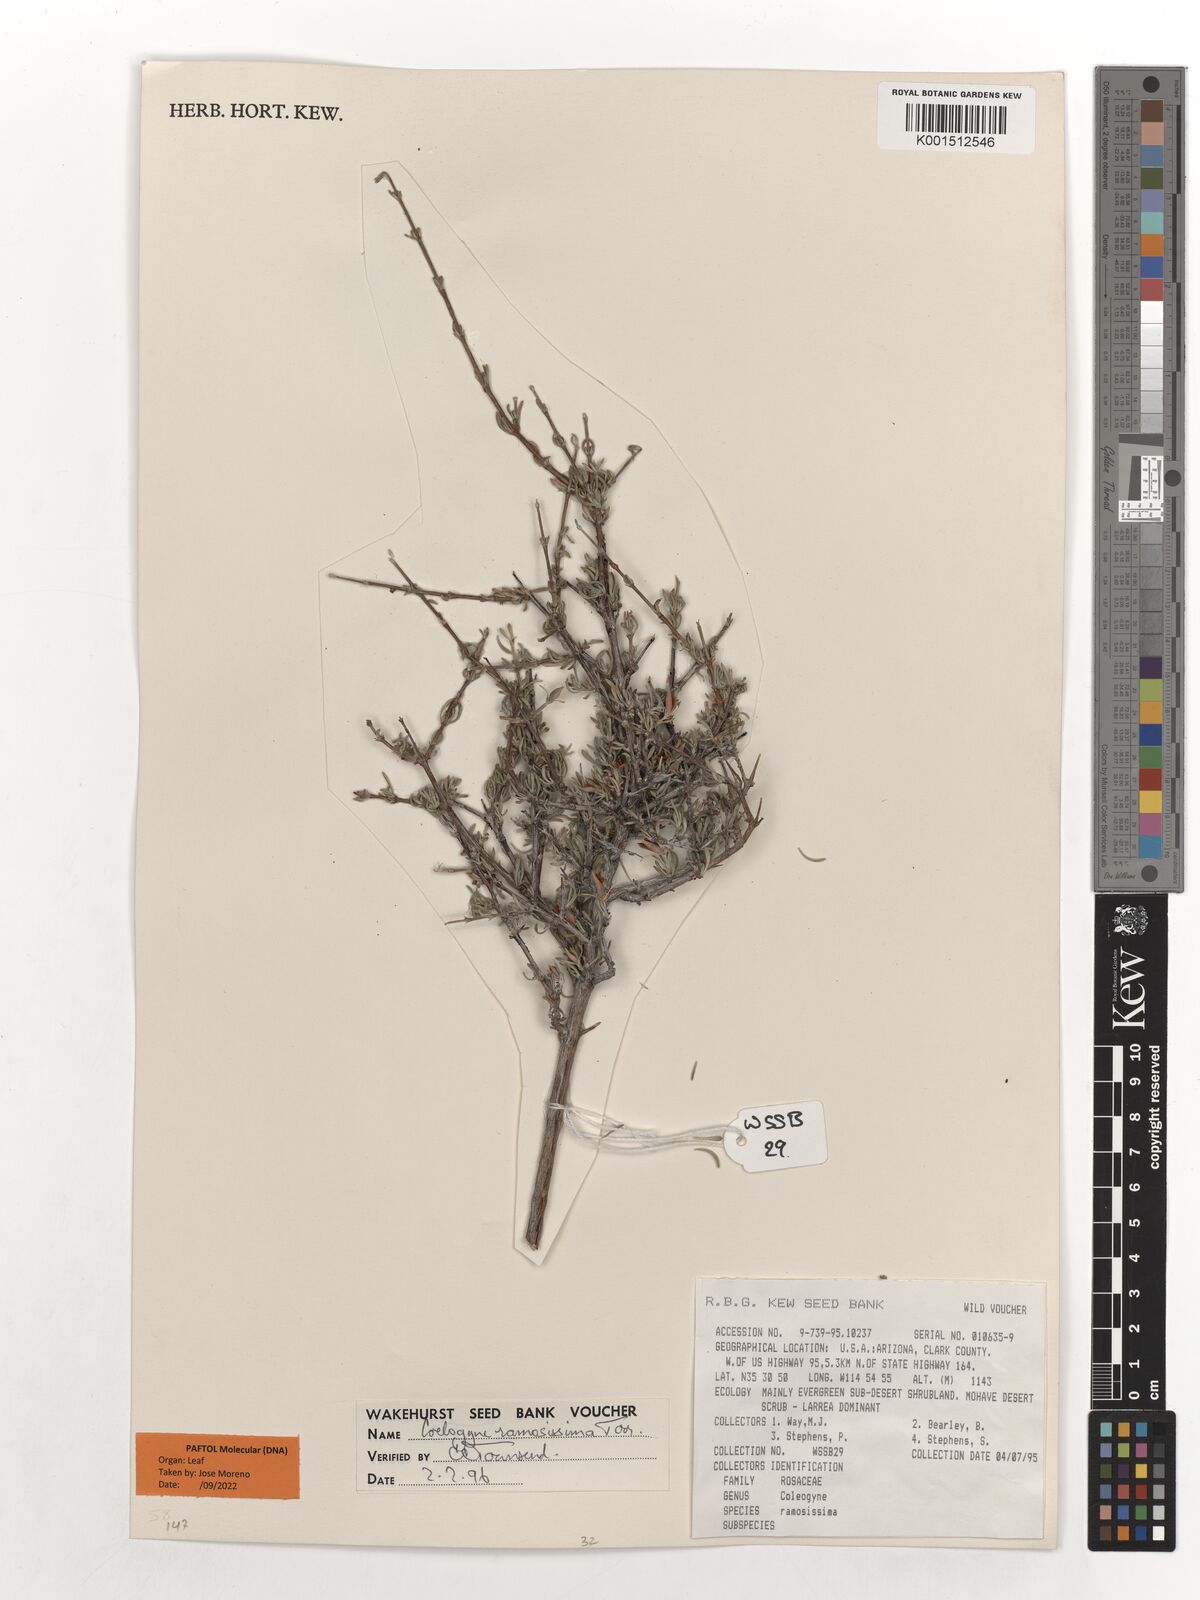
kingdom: Plantae
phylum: Tracheophyta
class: Magnoliopsida
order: Rosales
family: Rosaceae
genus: Coleogyne
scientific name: Coleogyne ramosissima
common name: Blackbrush
